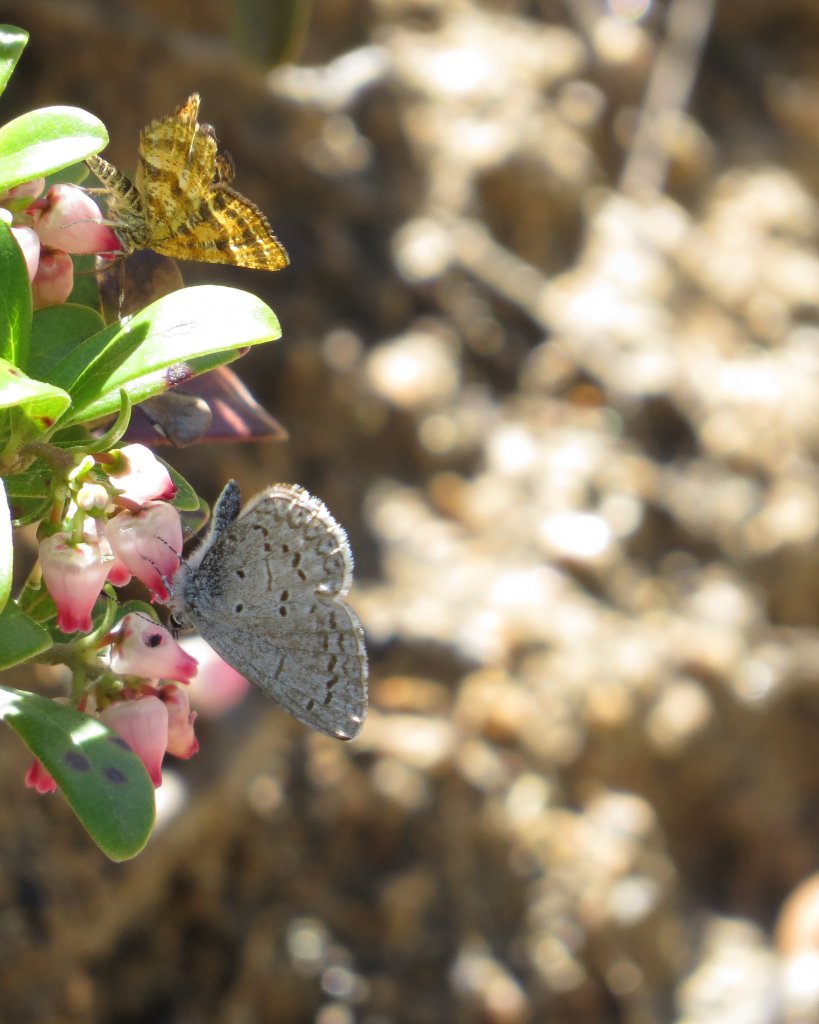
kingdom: Animalia
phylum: Arthropoda
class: Insecta
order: Lepidoptera
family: Lycaenidae
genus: Celastrina
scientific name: Celastrina
